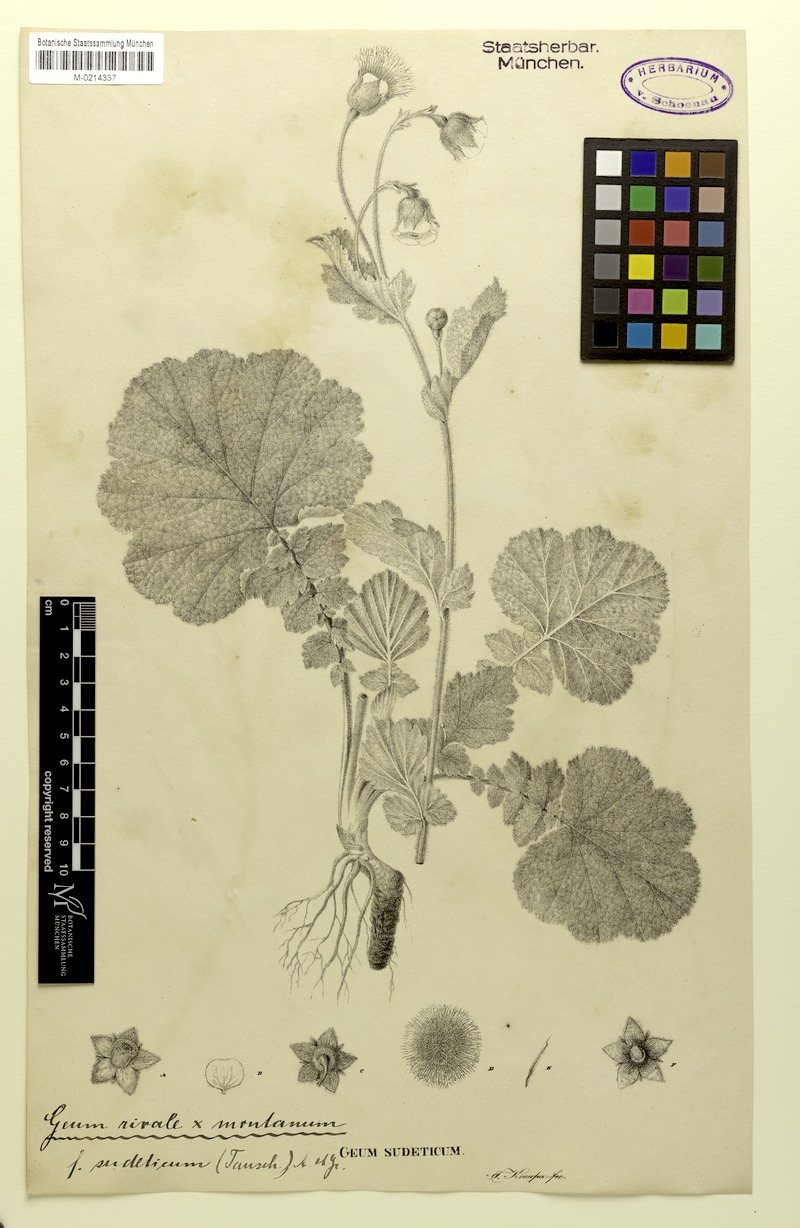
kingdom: Plantae
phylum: Tracheophyta
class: Magnoliopsida
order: Rosales
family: Rosaceae
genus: Geum
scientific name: Geum sudeticum
